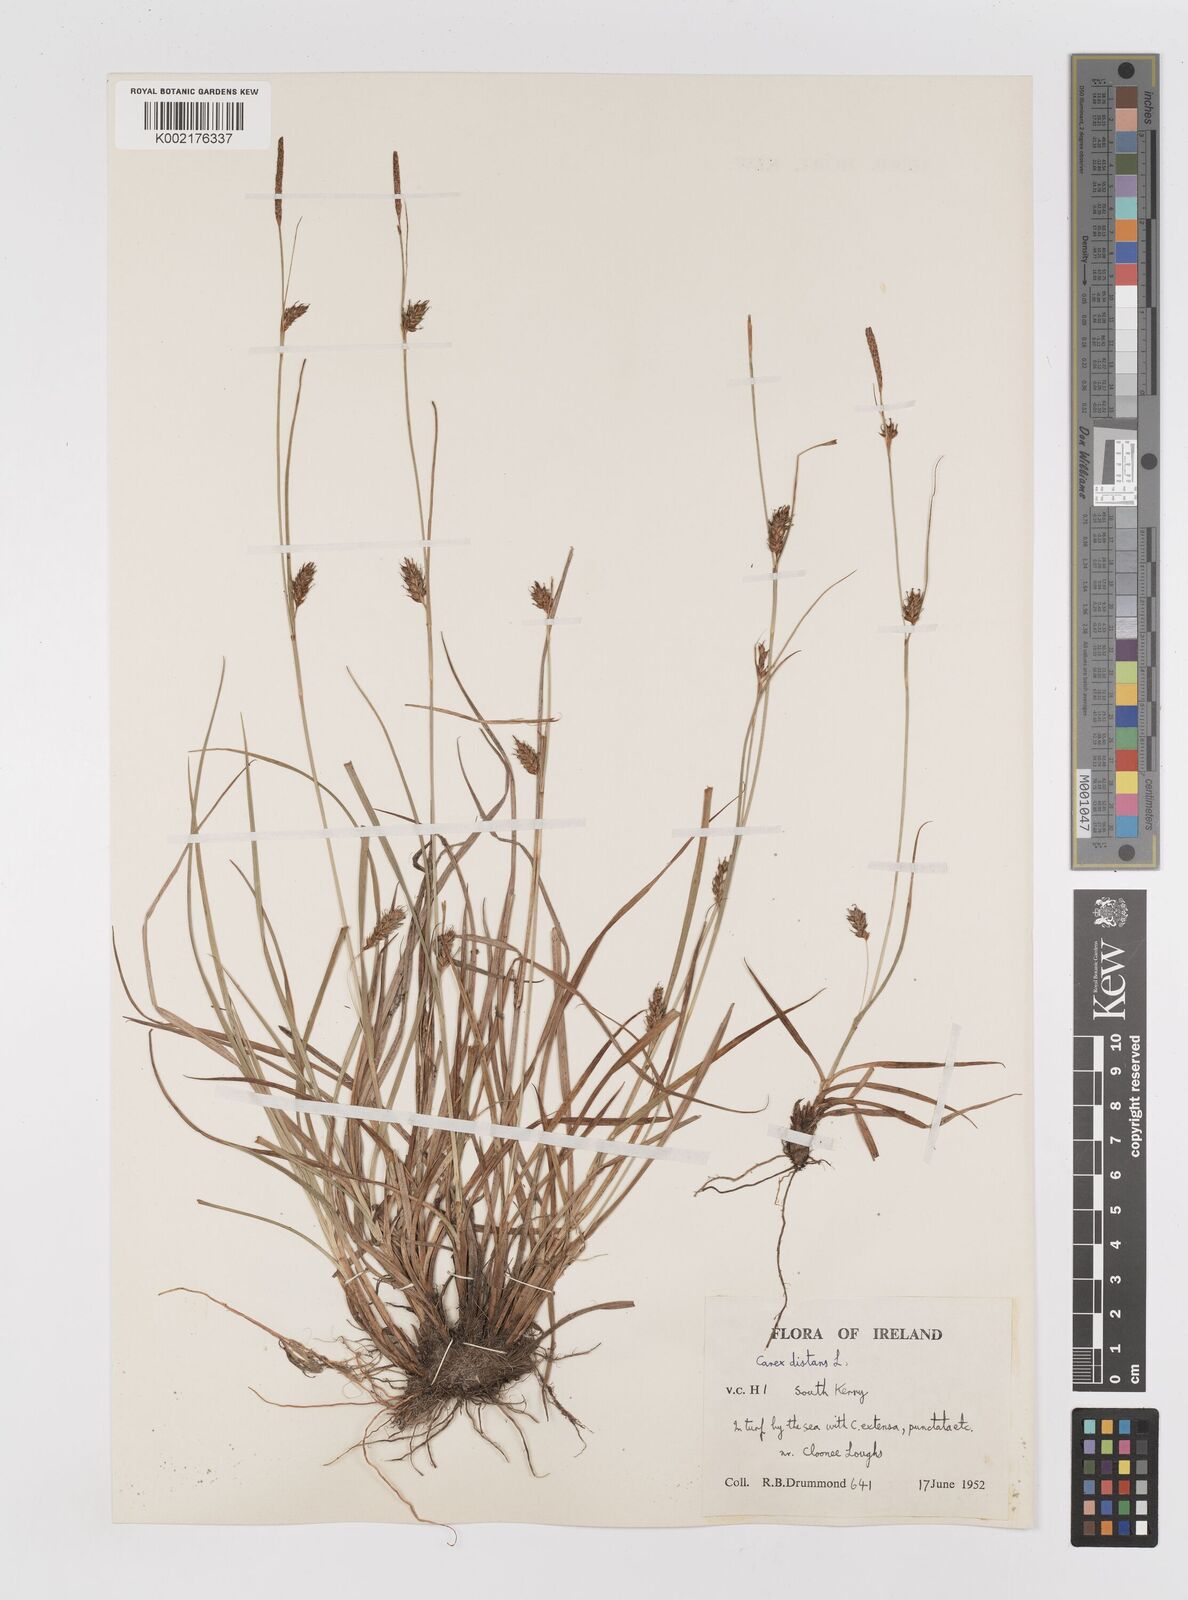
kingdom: Plantae
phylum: Tracheophyta
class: Liliopsida
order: Poales
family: Cyperaceae
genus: Carex
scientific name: Carex distans
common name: Distant sedge
